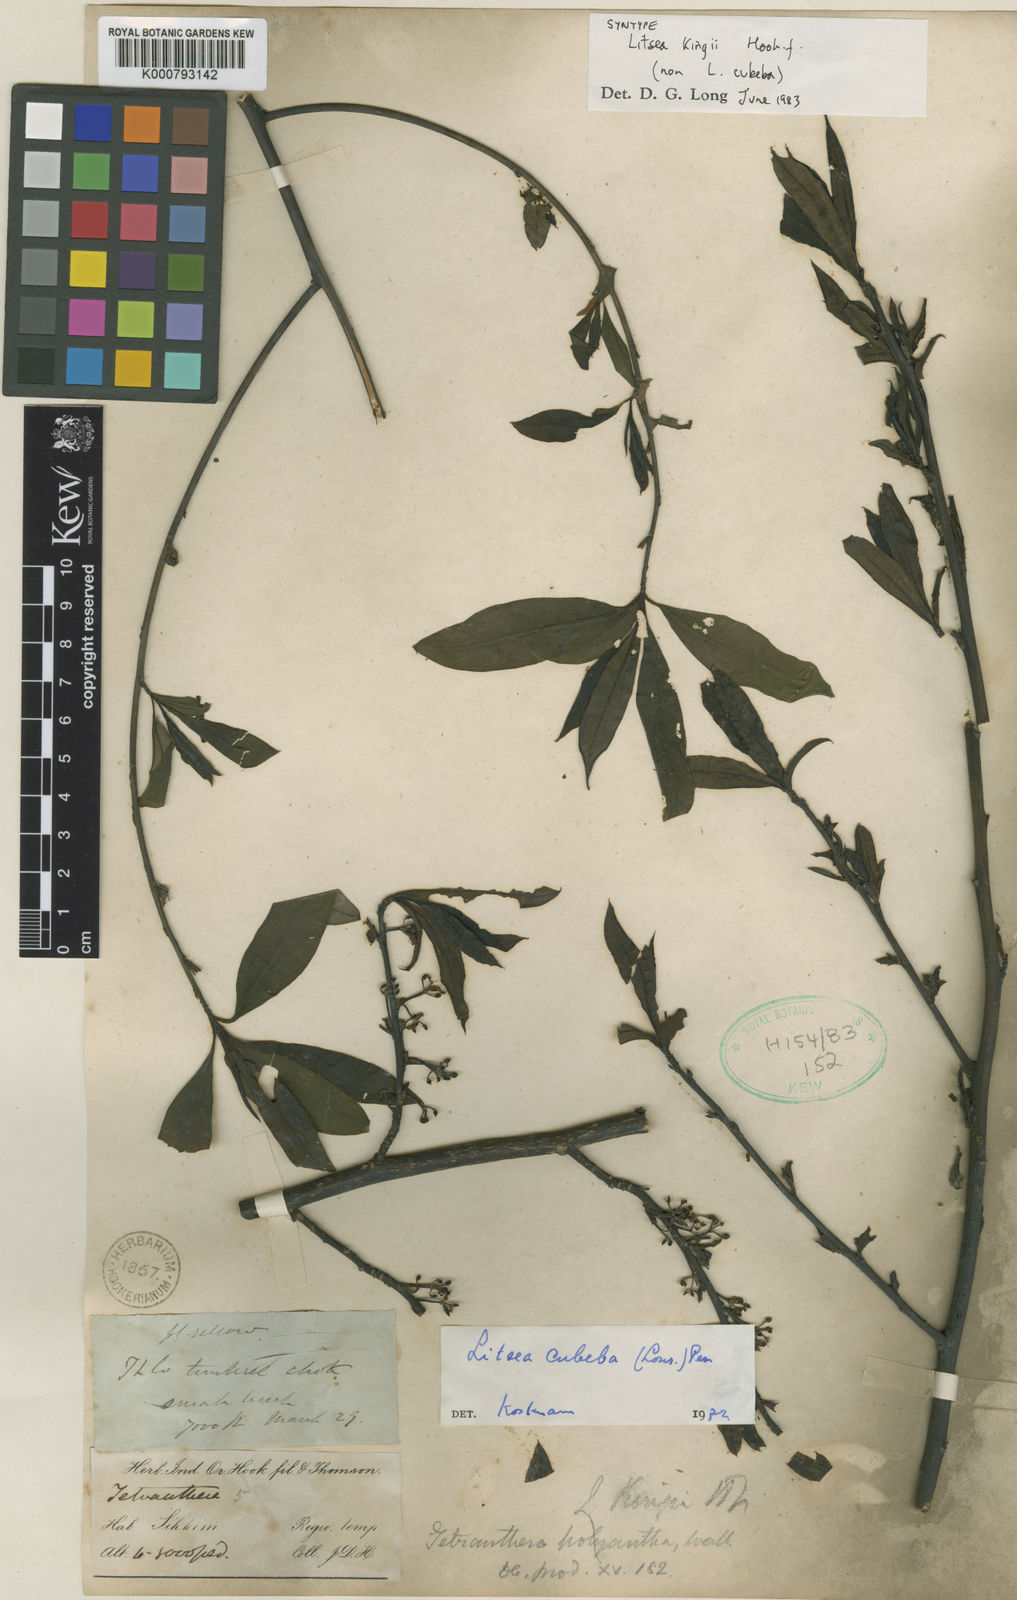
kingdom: Plantae
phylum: Tracheophyta
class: Magnoliopsida
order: Laurales
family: Lauraceae
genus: Litsea
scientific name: Litsea kingii
